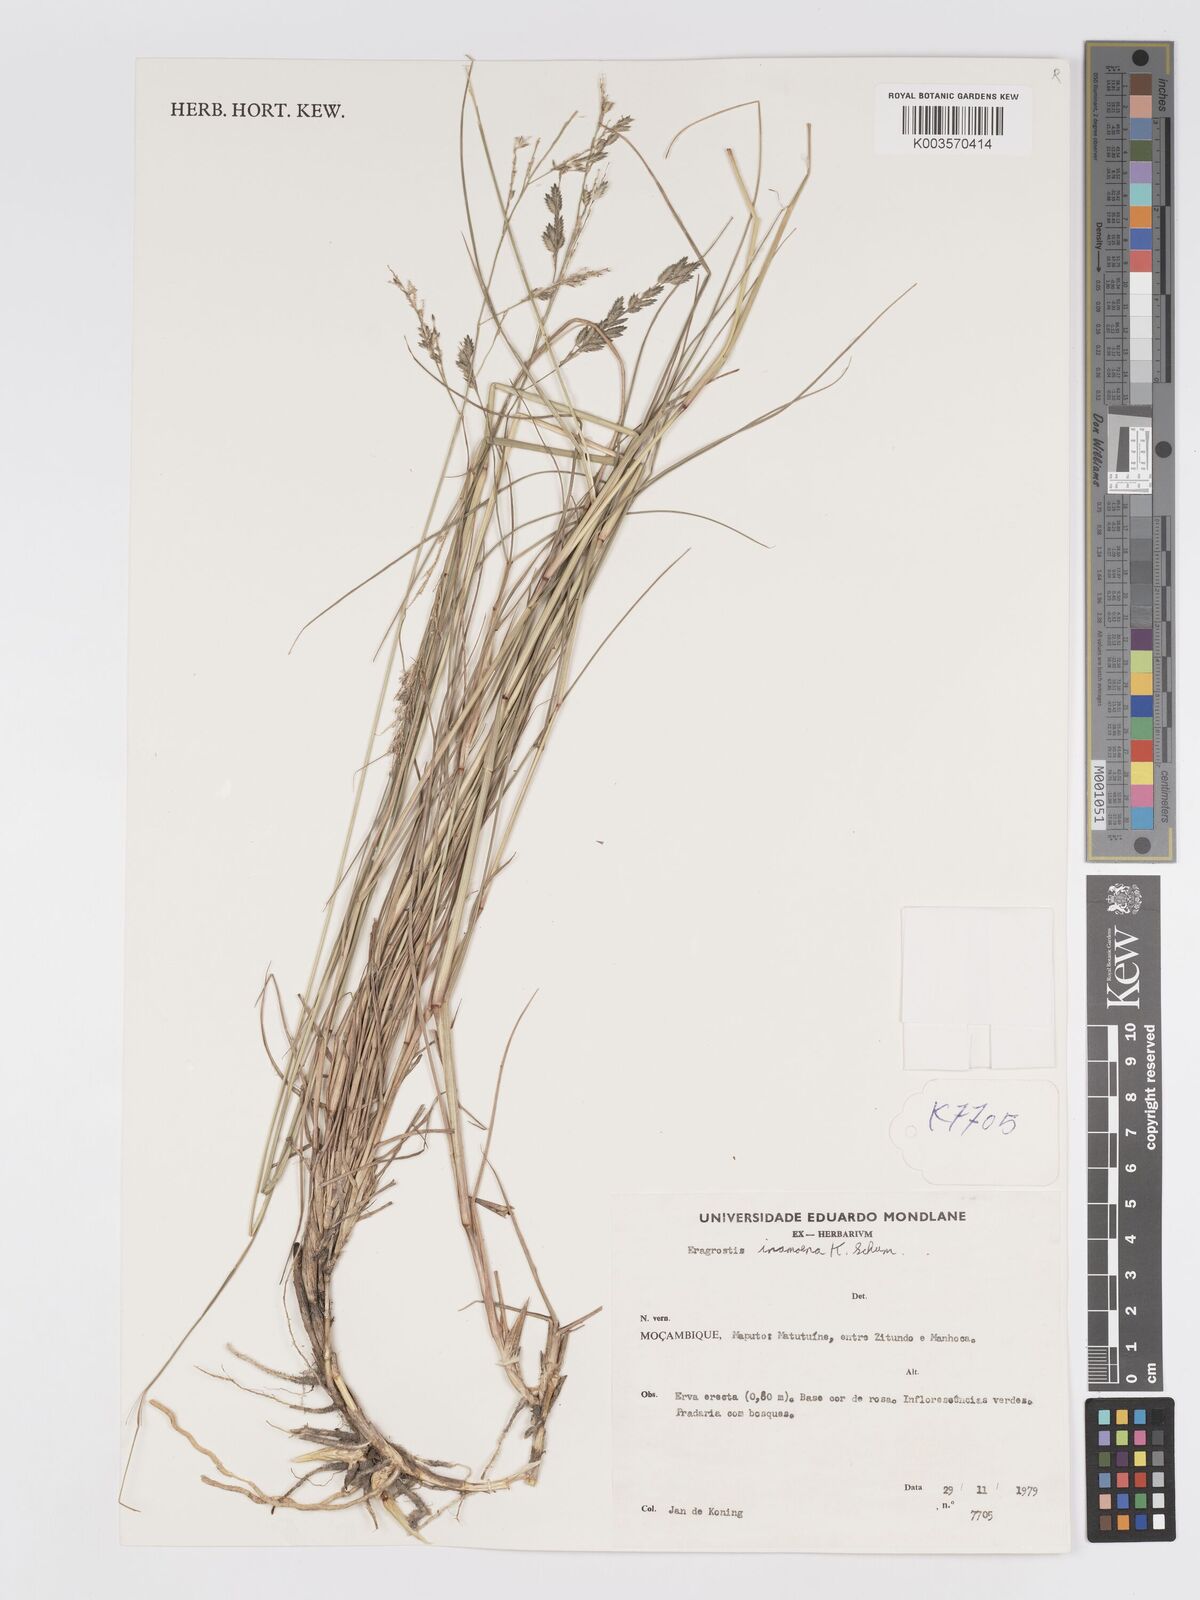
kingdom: Plantae
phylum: Tracheophyta
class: Liliopsida
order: Poales
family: Poaceae
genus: Eragrostis
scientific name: Eragrostis inamoena
